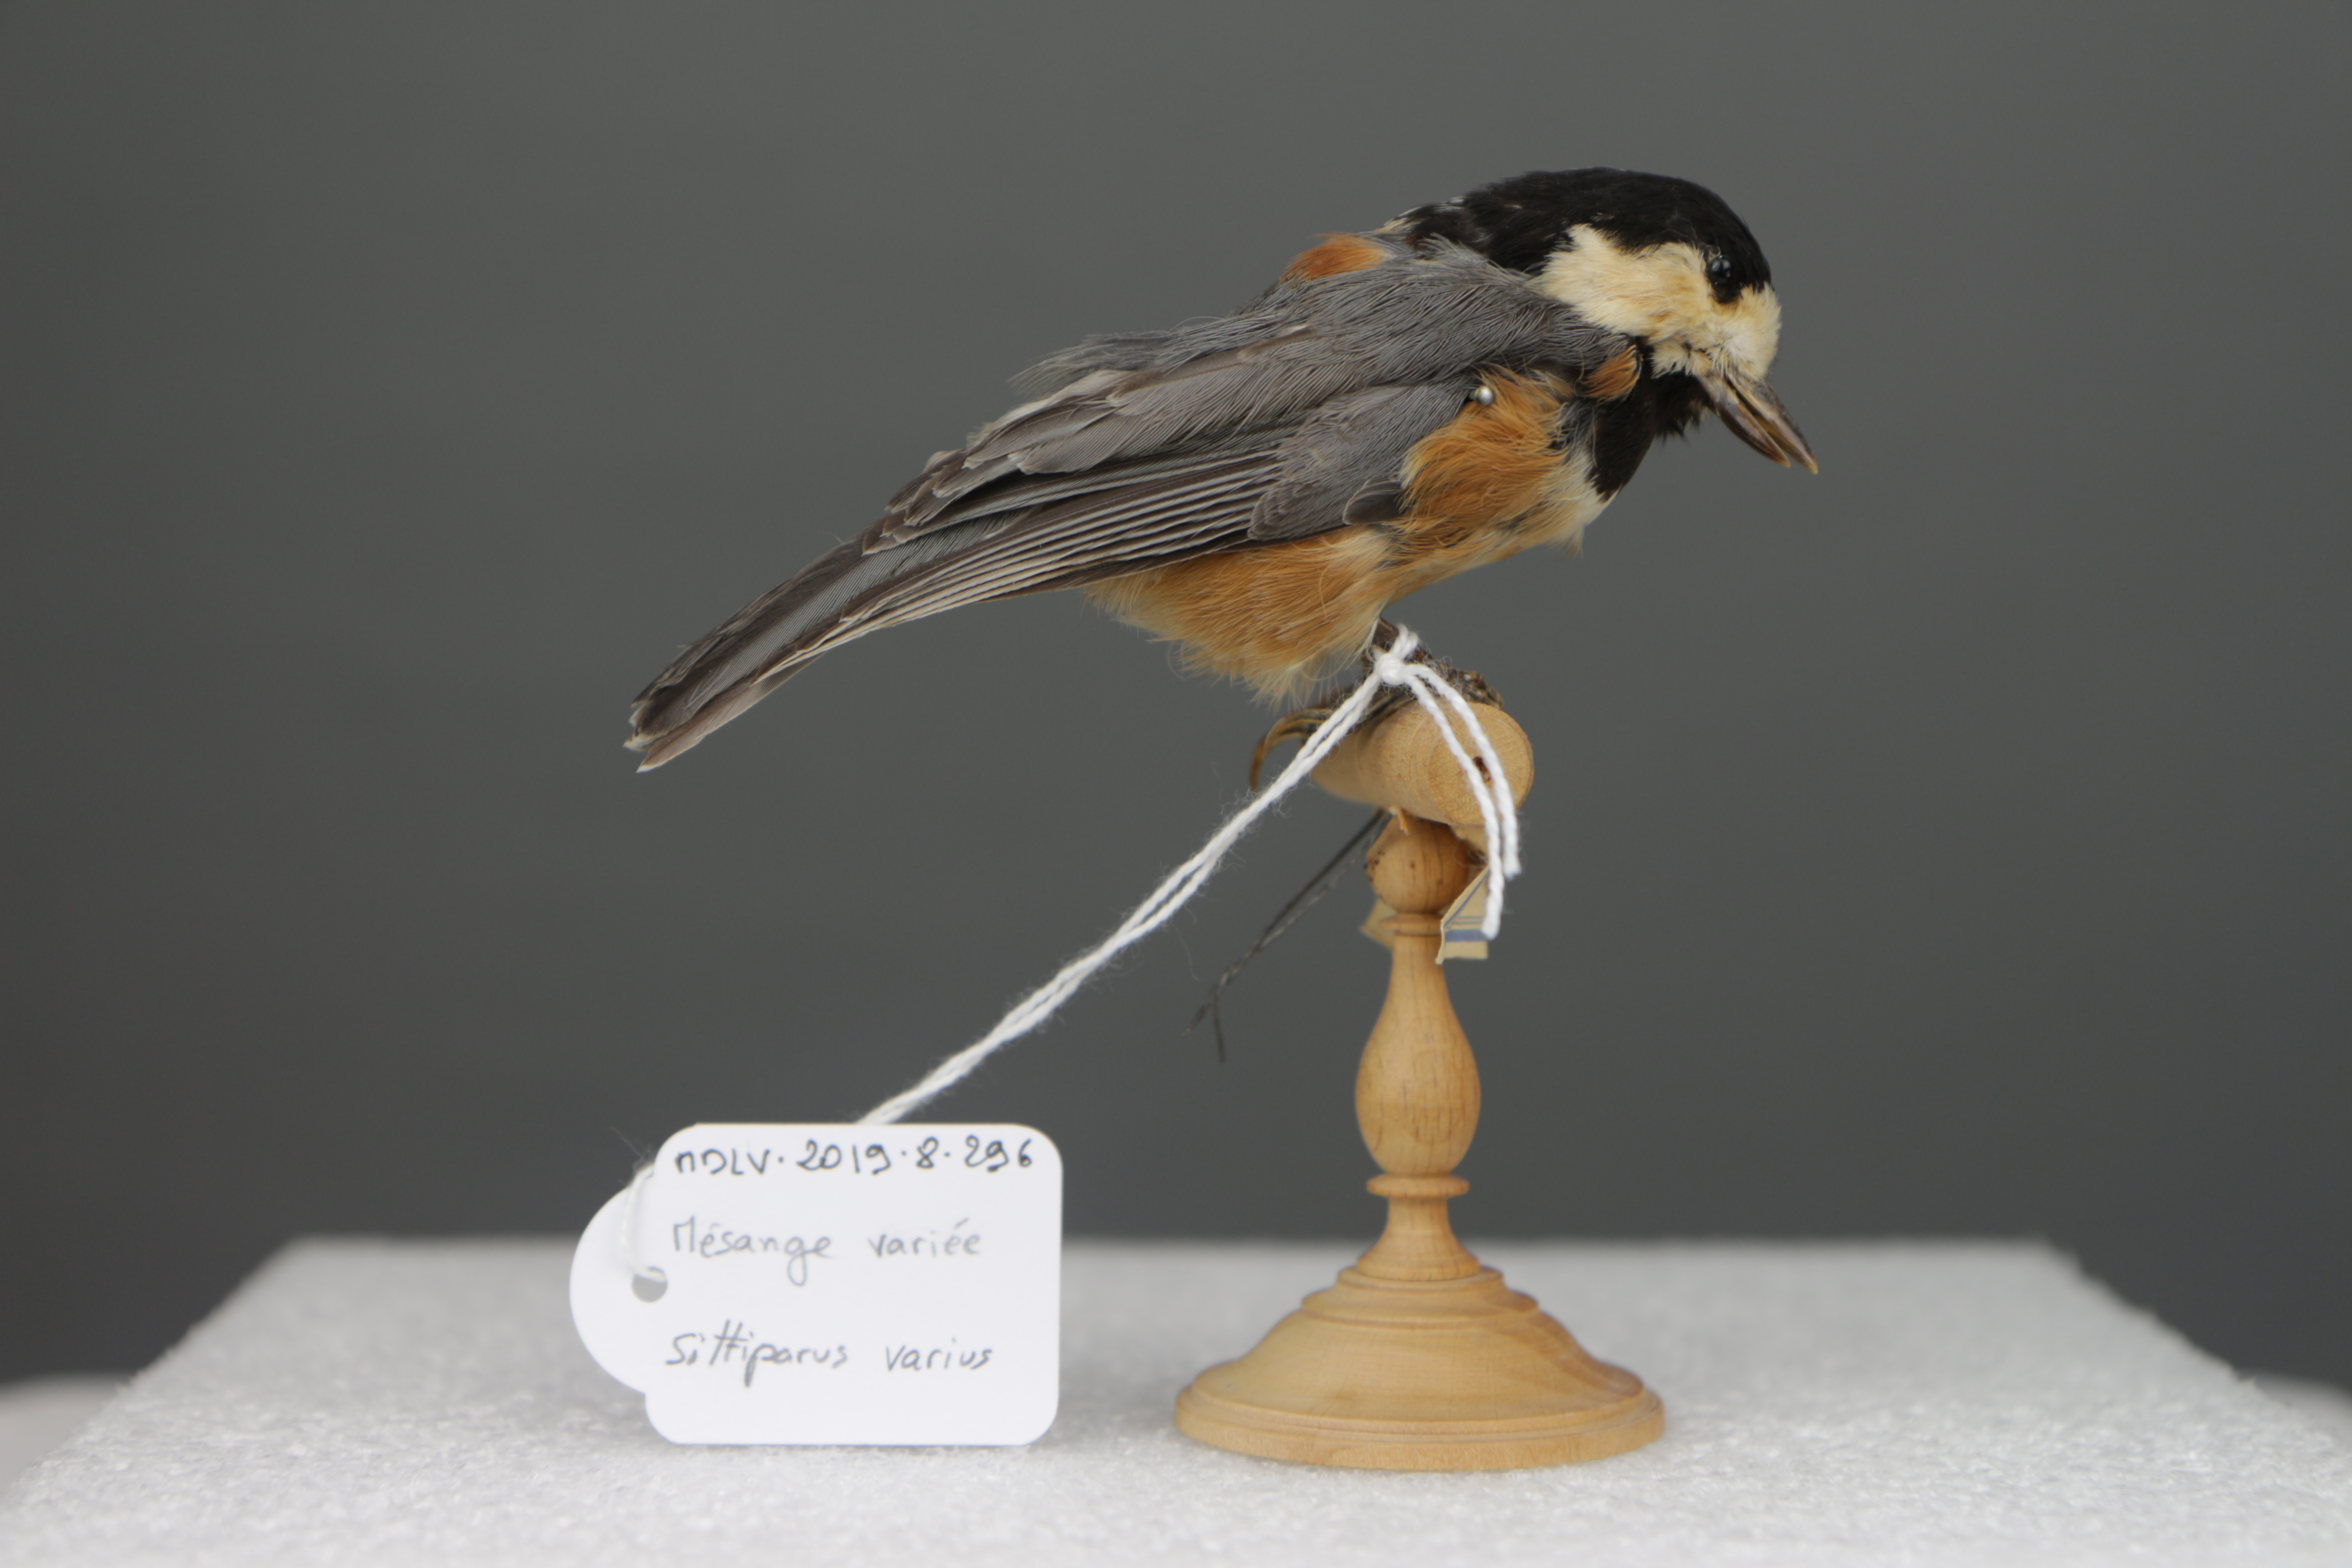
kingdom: Animalia
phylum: Chordata
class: Aves
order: Passeriformes
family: Paridae
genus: Poecile
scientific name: Poecile varius
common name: Varied tit
